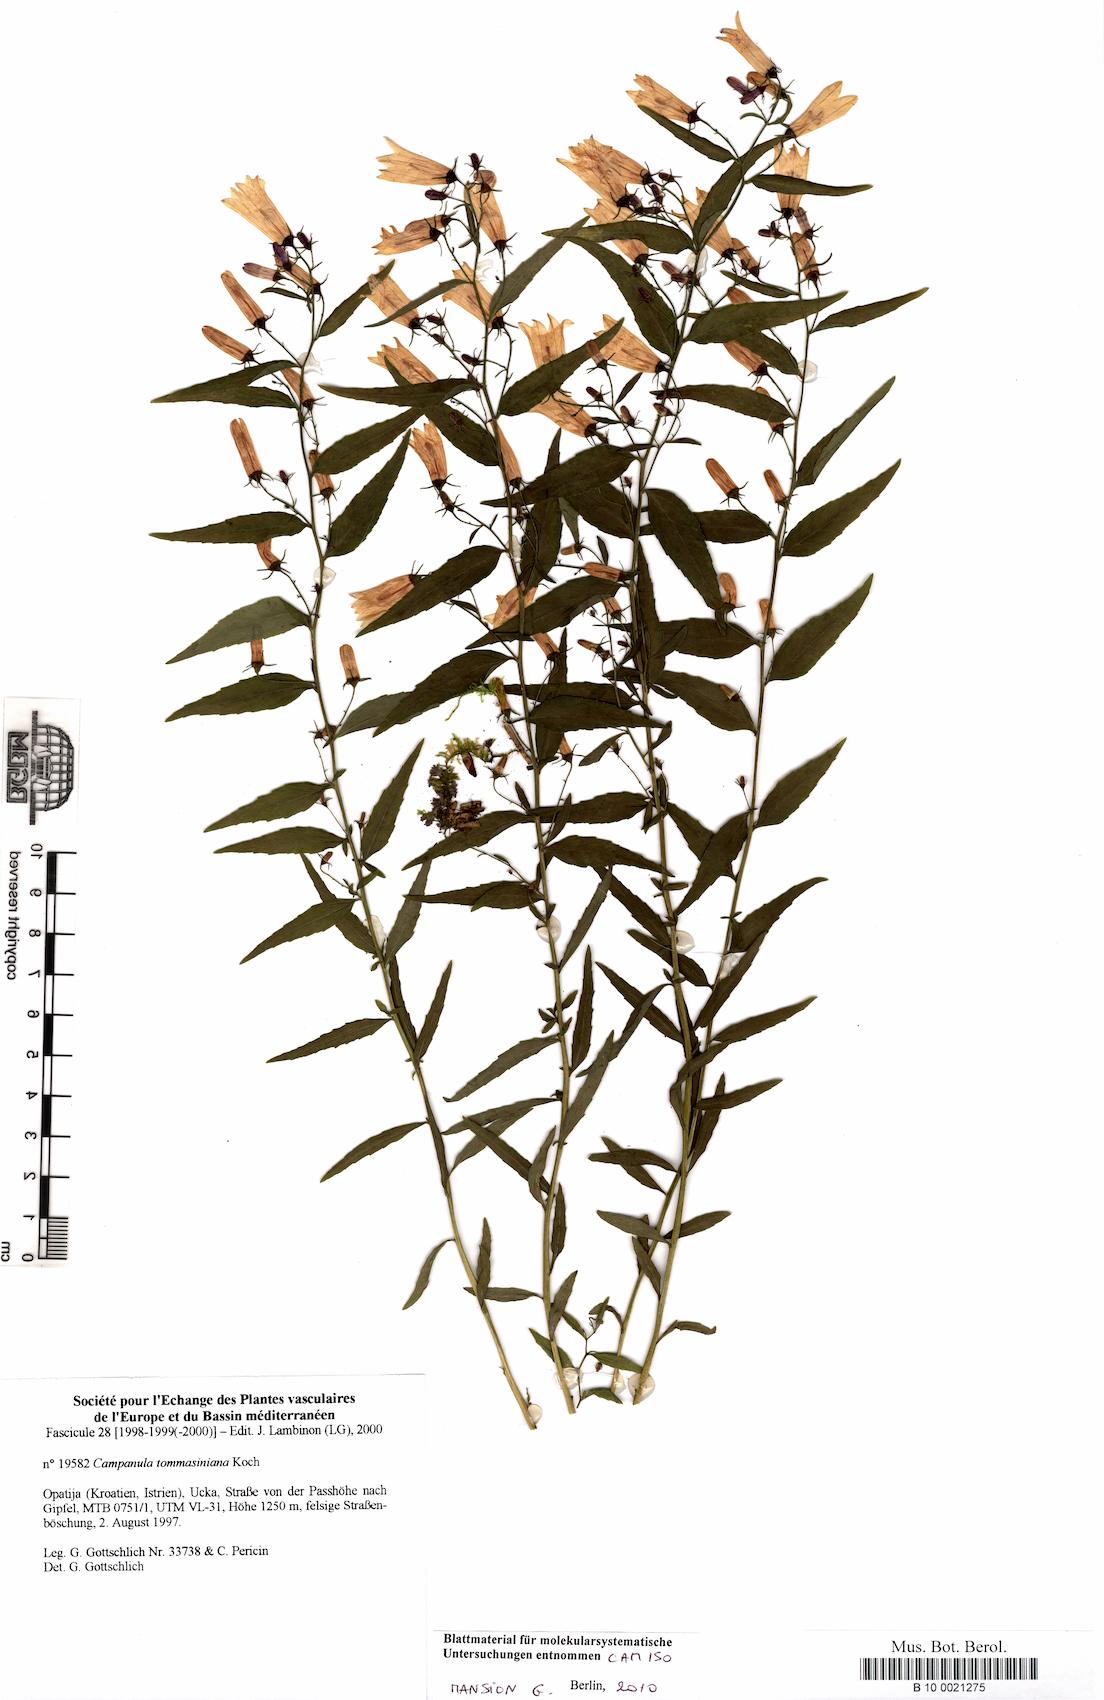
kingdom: Plantae
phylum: Tracheophyta
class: Magnoliopsida
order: Asterales
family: Campanulaceae
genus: Campanula
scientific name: Campanula tommasiniana
